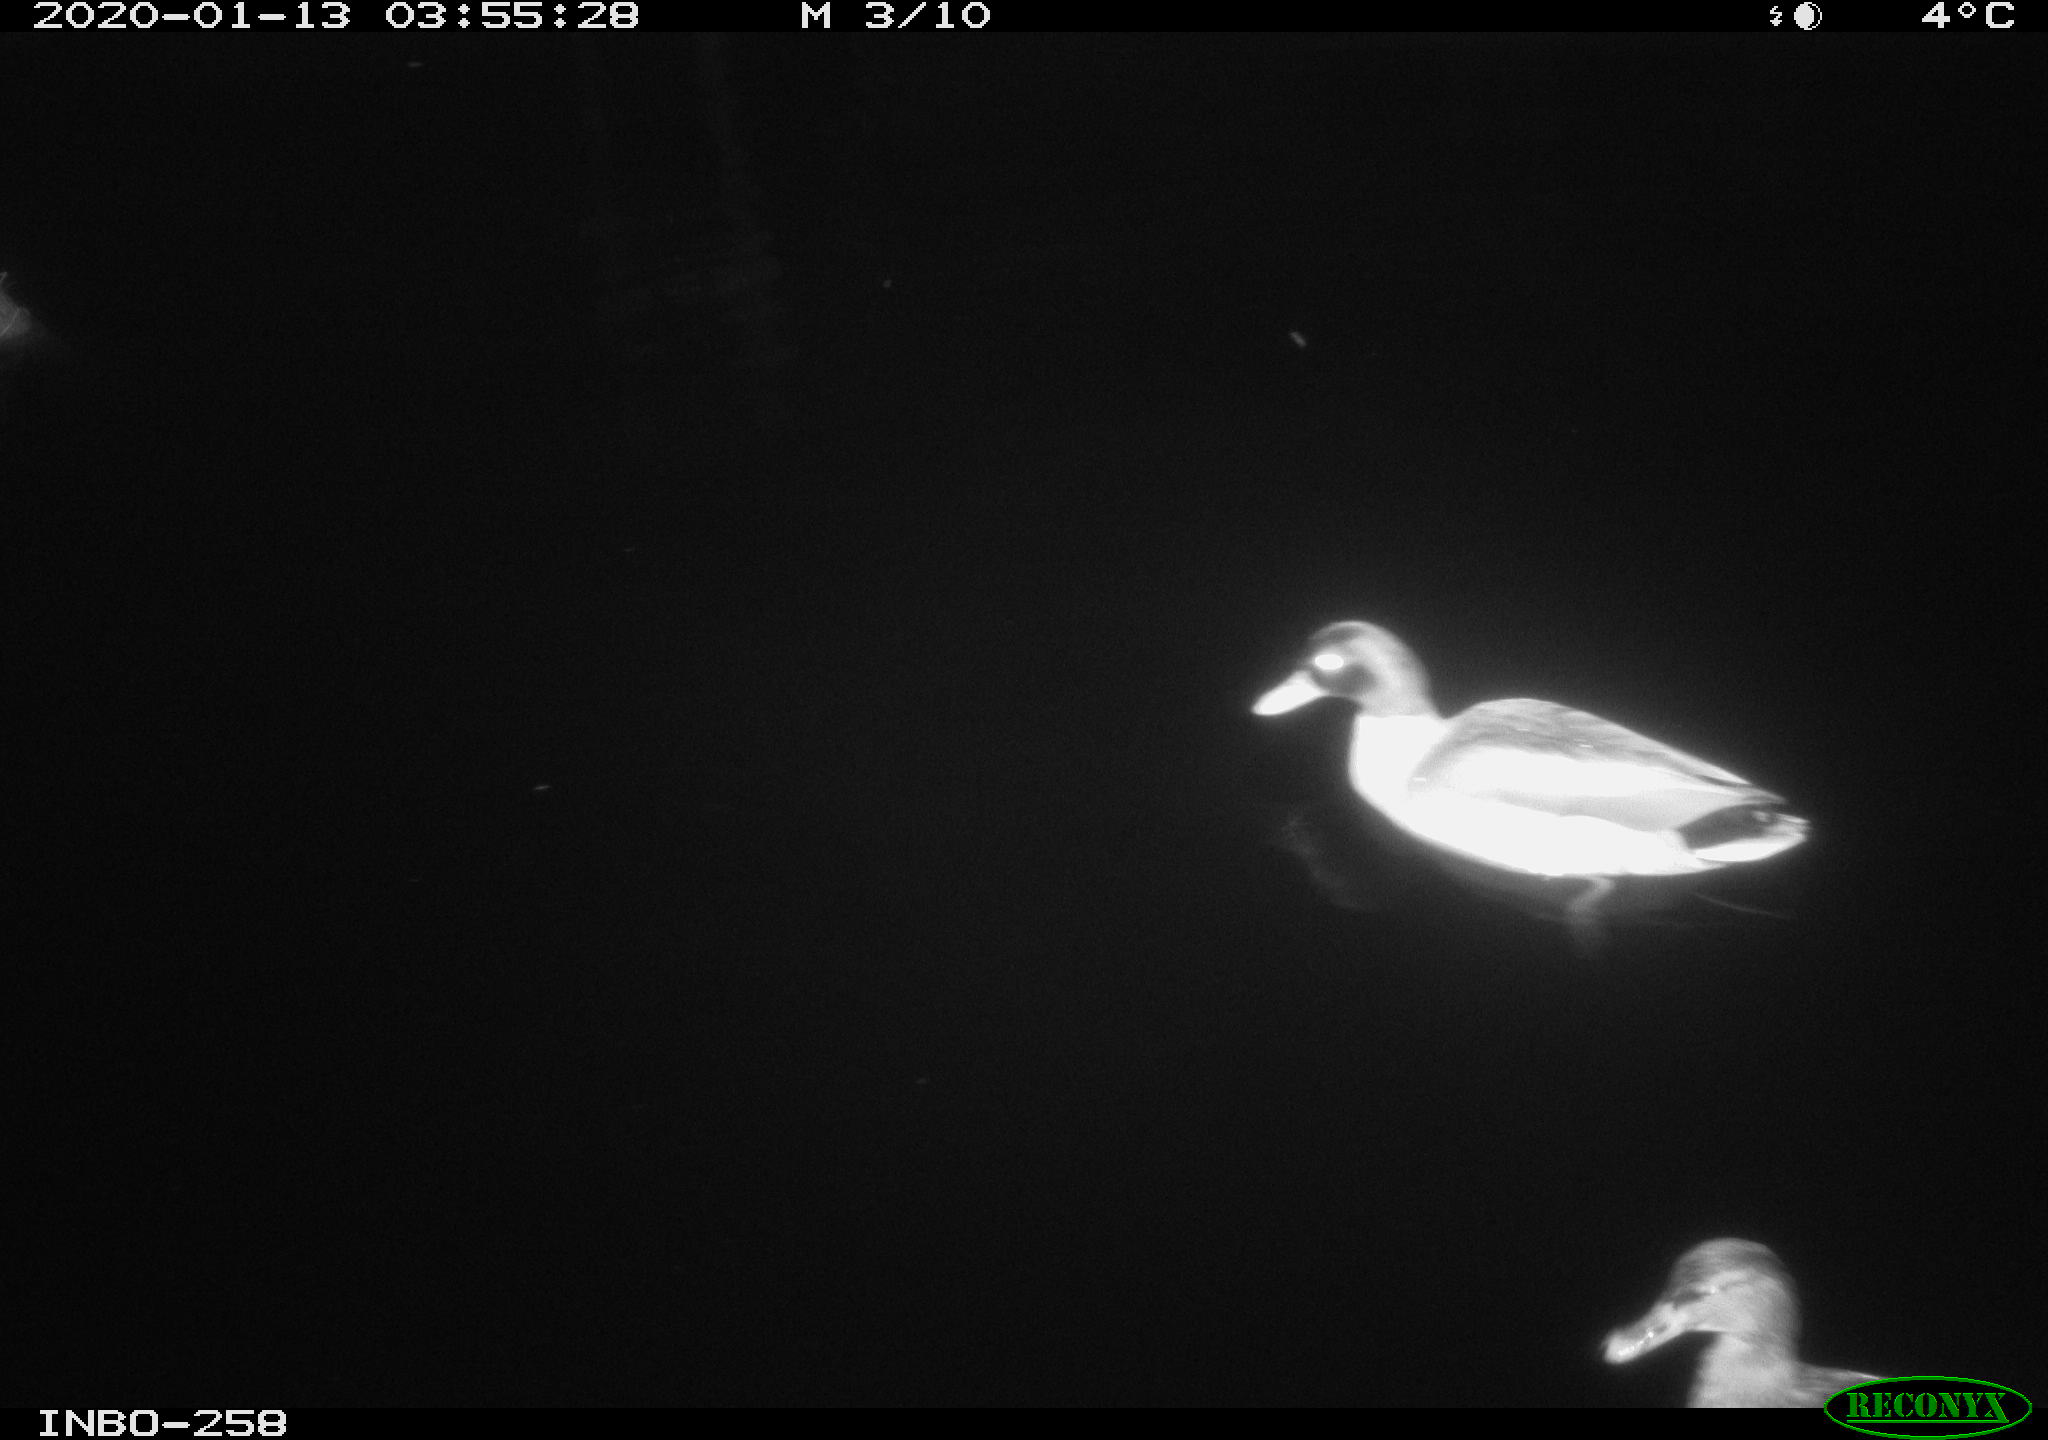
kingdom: Animalia
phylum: Chordata
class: Aves
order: Anseriformes
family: Anatidae
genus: Anas
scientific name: Anas platyrhynchos
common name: Mallard
